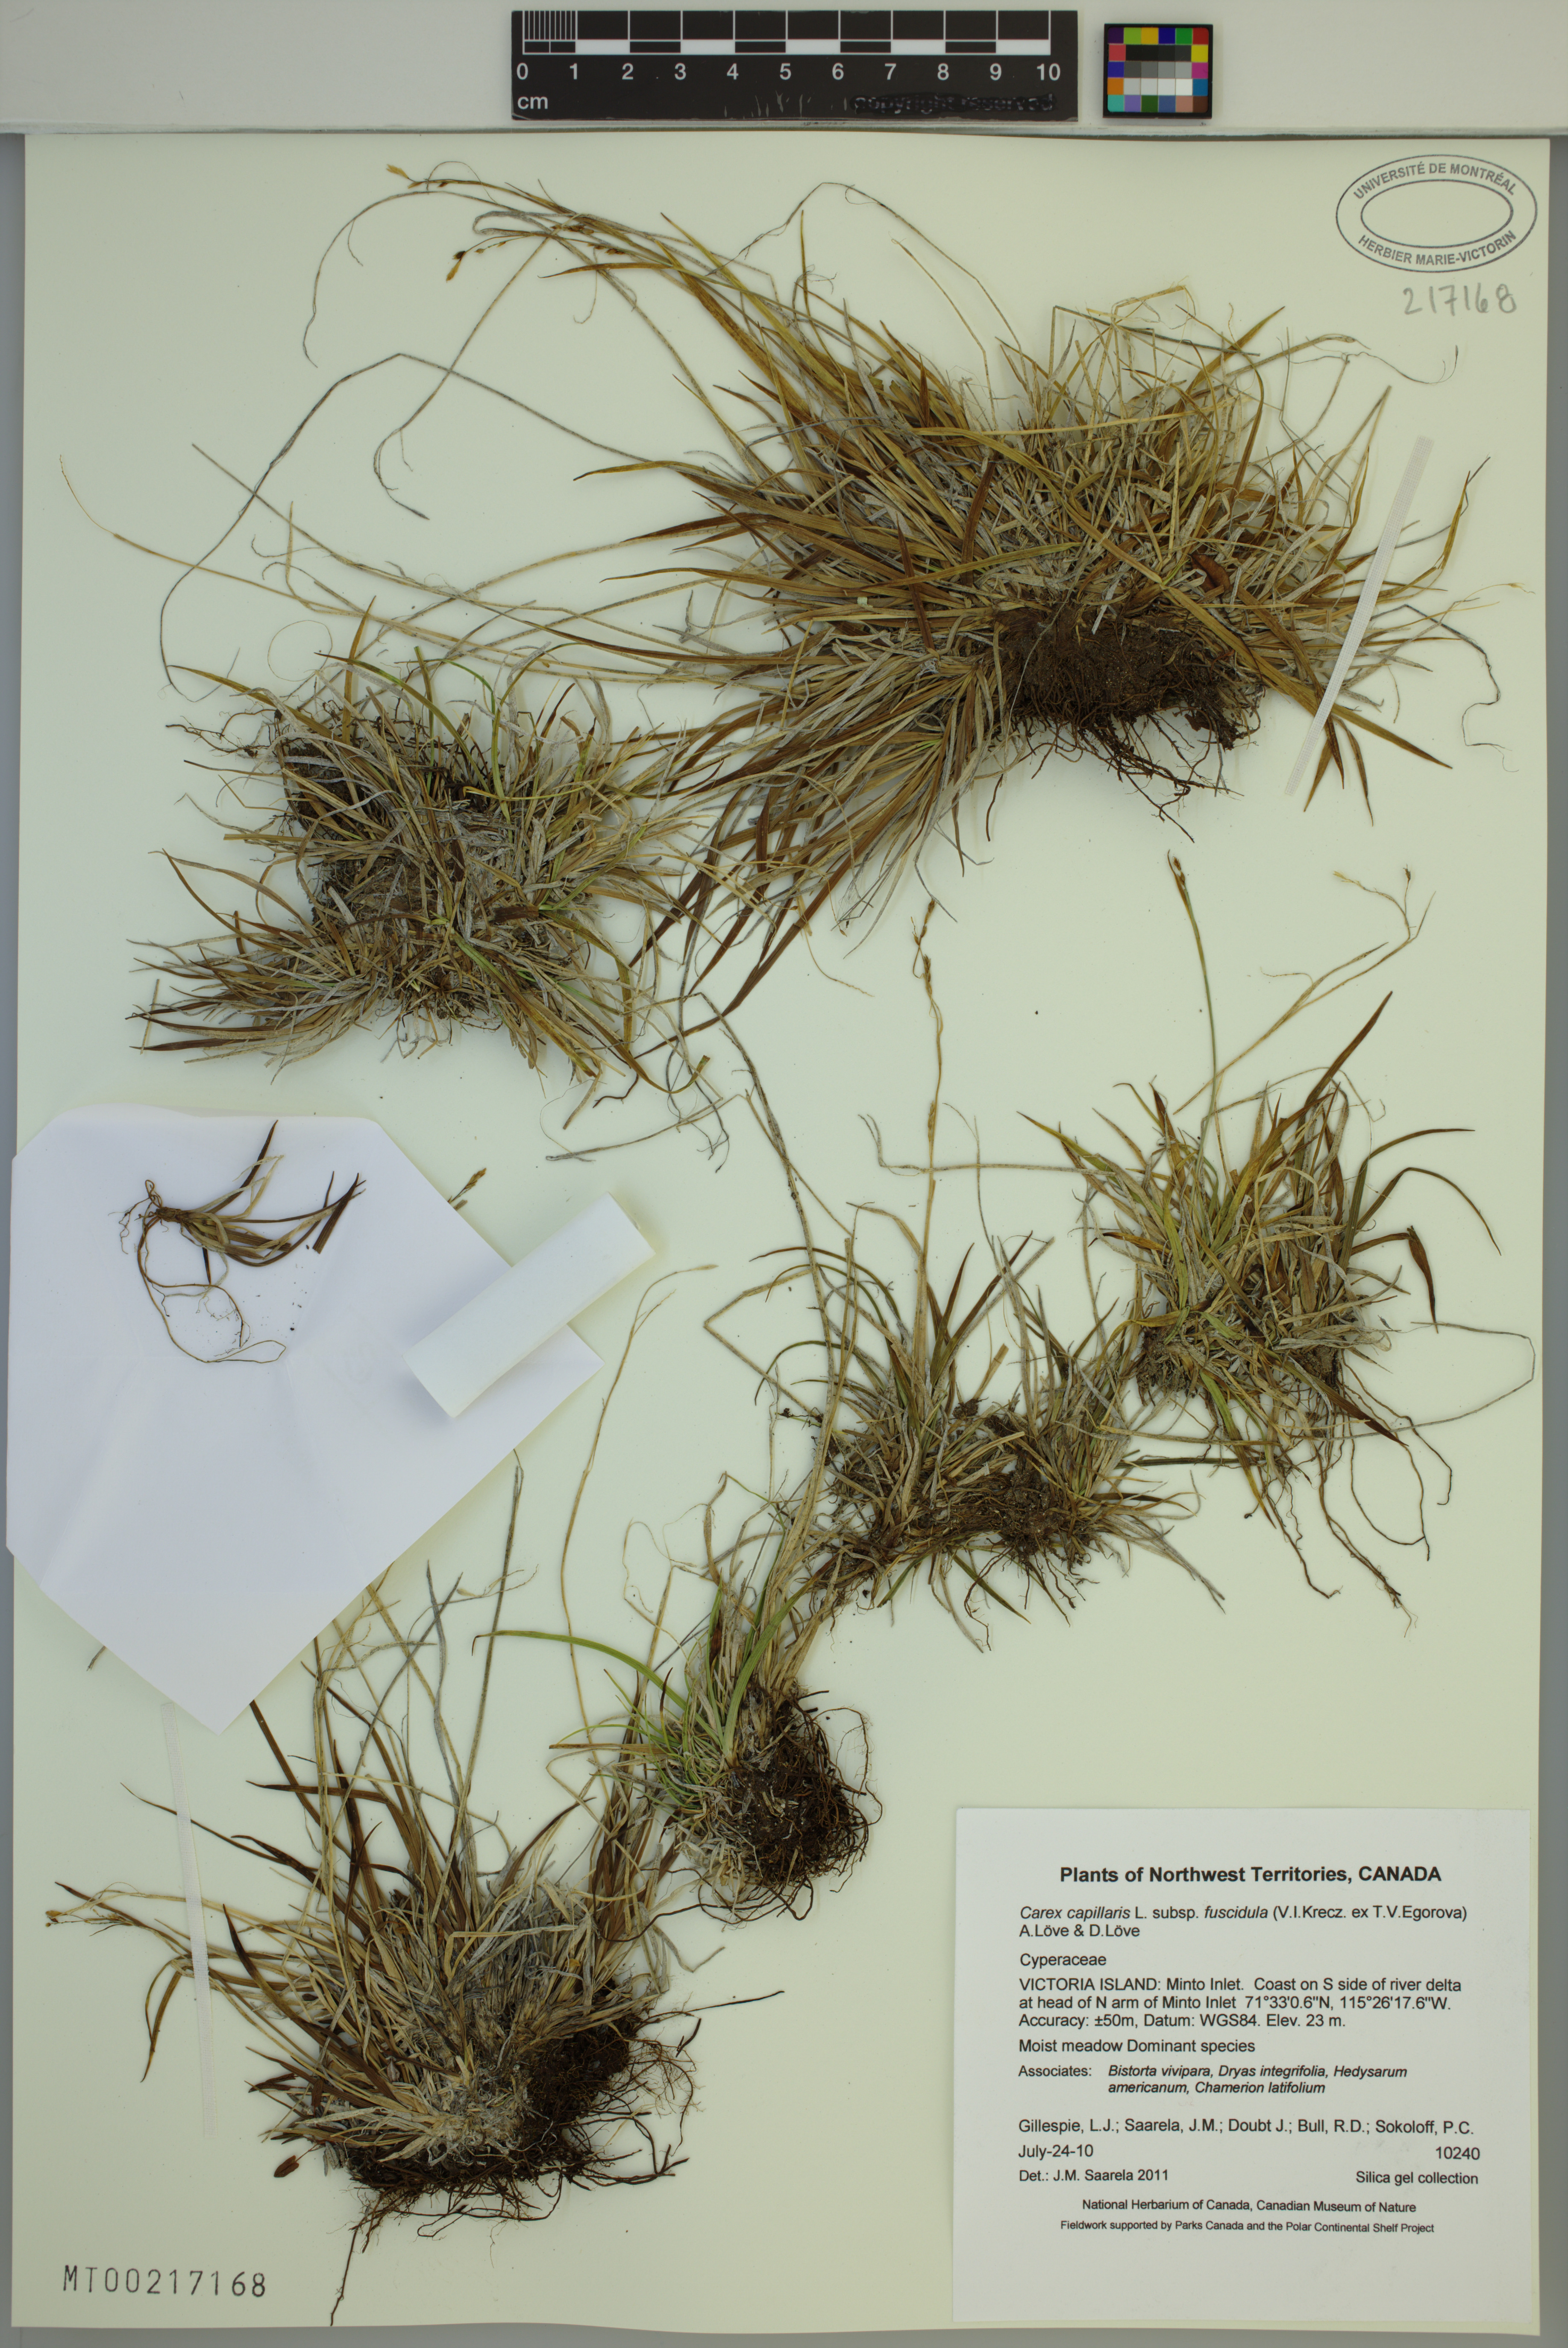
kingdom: Plantae
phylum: Tracheophyta
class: Liliopsida
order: Poales
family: Cyperaceae
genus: Carex
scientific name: Carex capillaris
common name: Hair sedge
